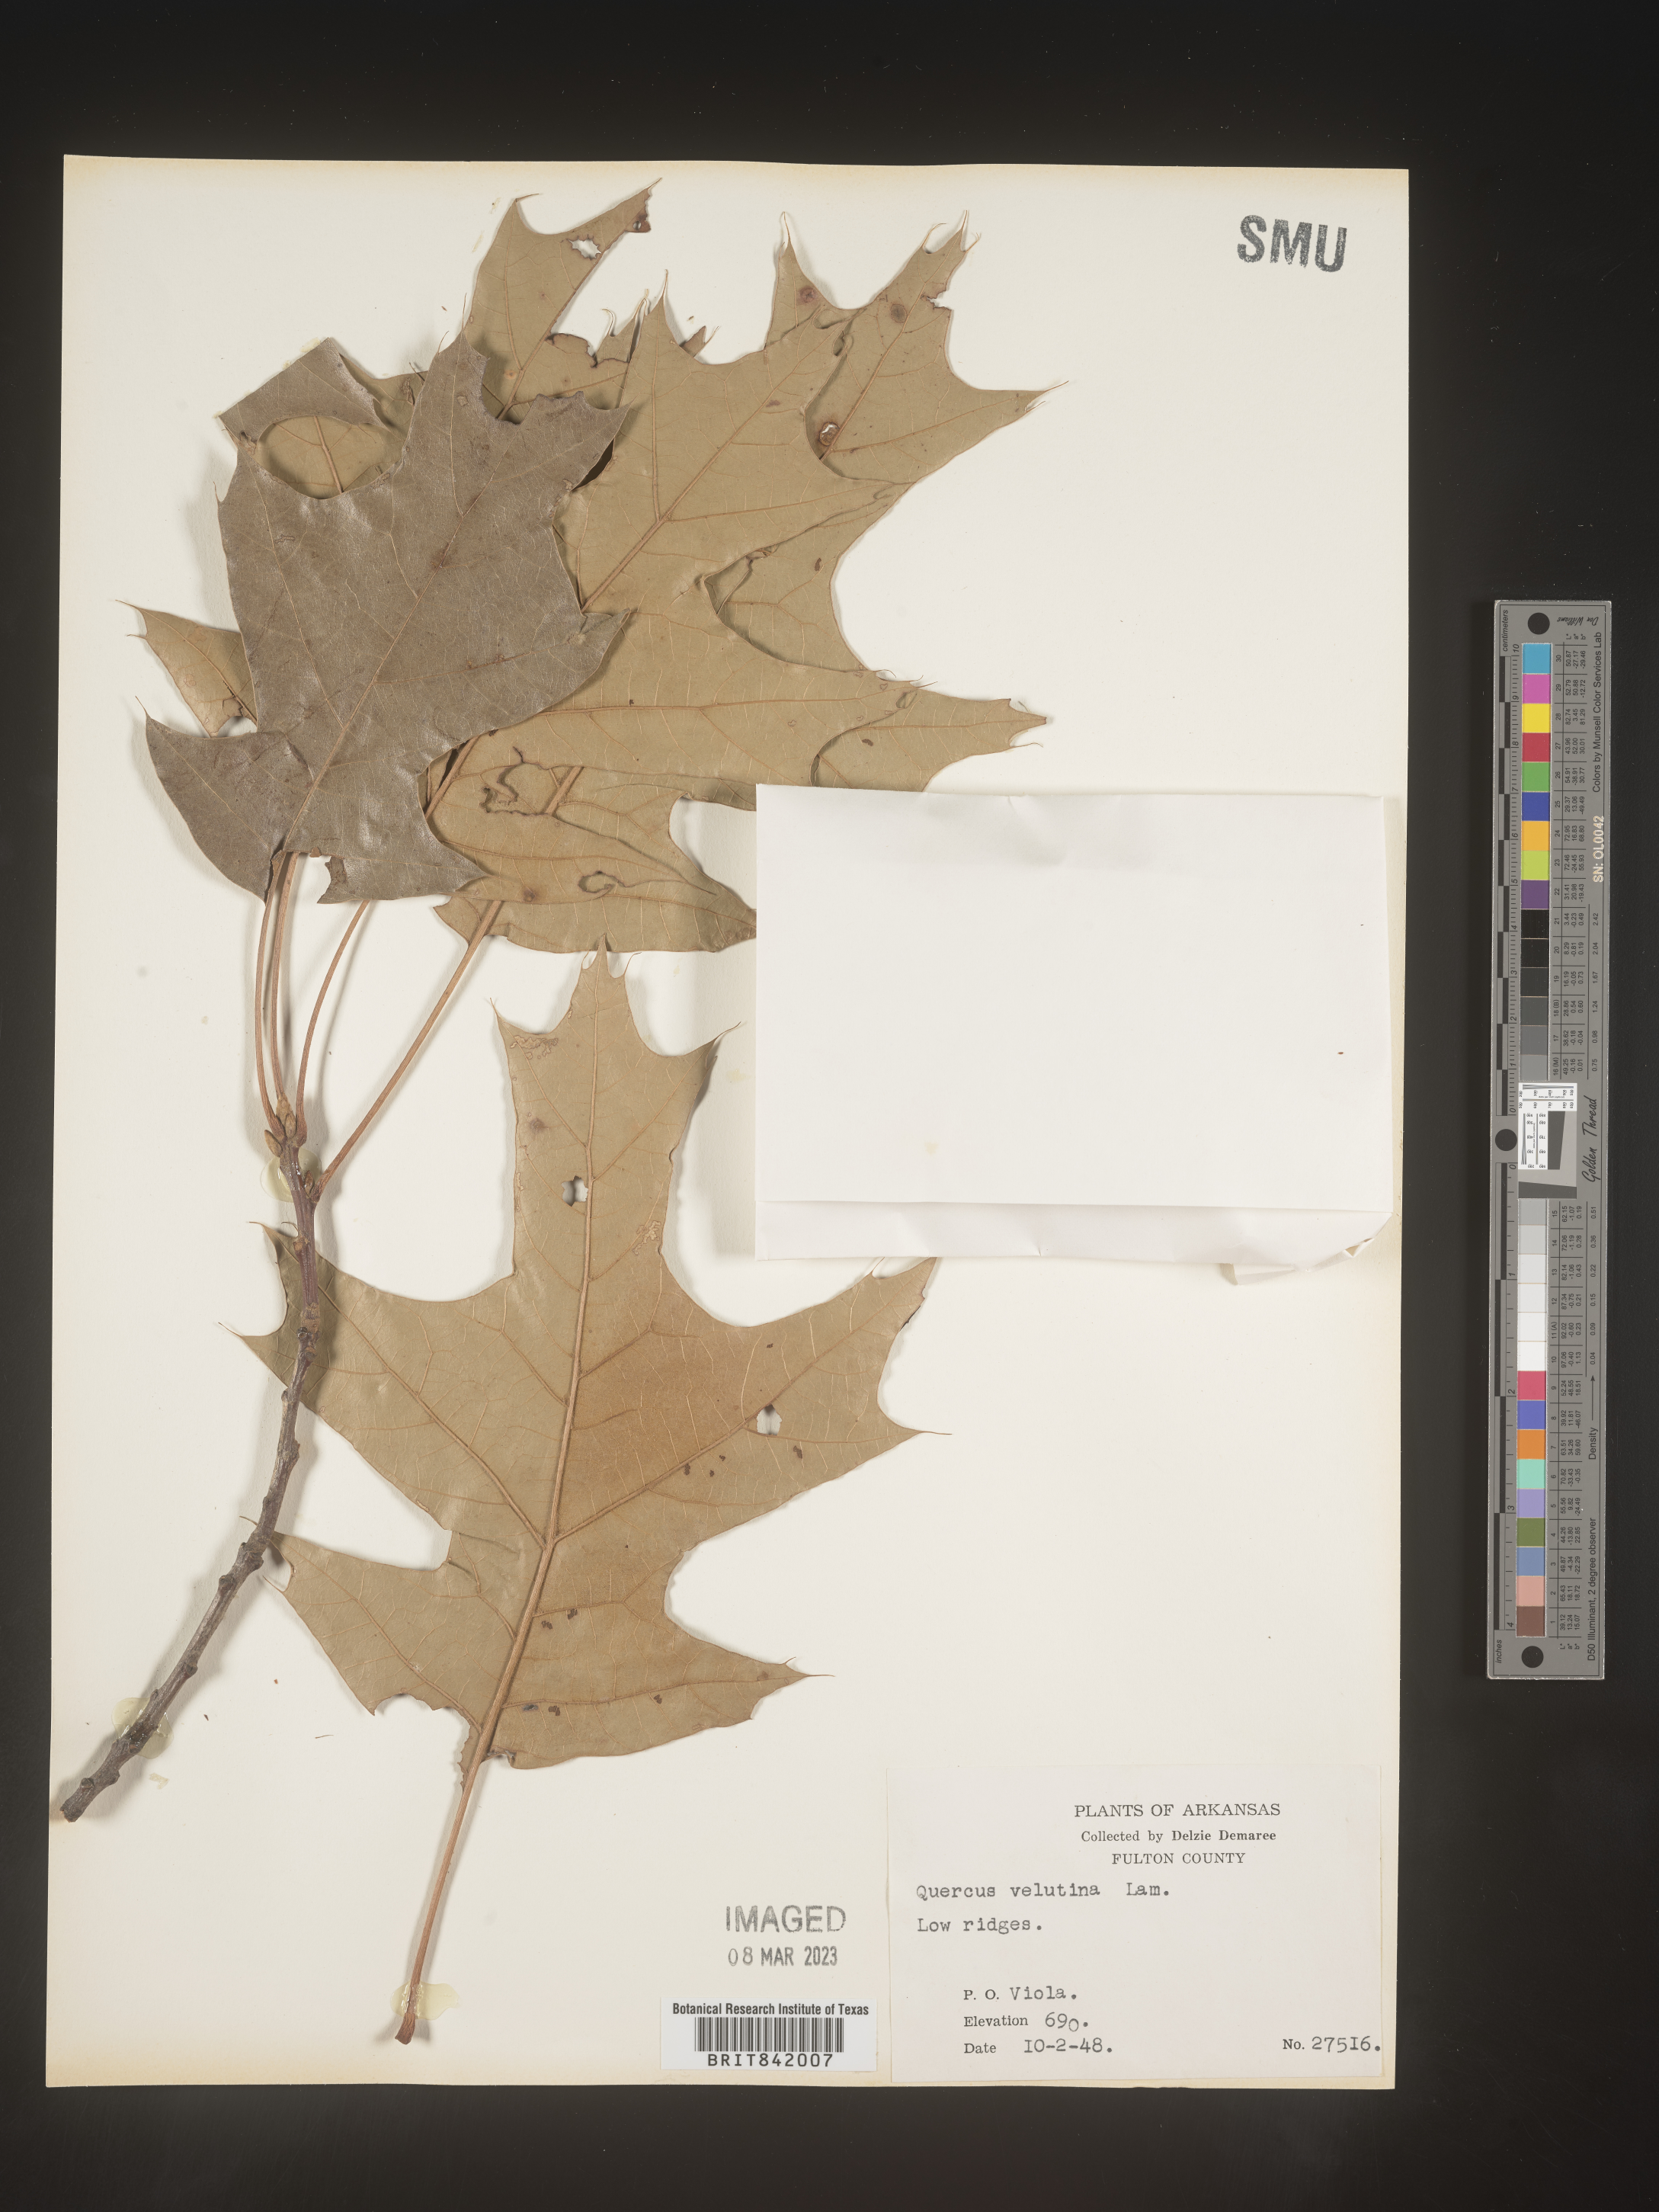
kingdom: Plantae
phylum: Tracheophyta
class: Magnoliopsida
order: Fagales
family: Fagaceae
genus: Quercus
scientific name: Quercus velutina
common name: Black oak
